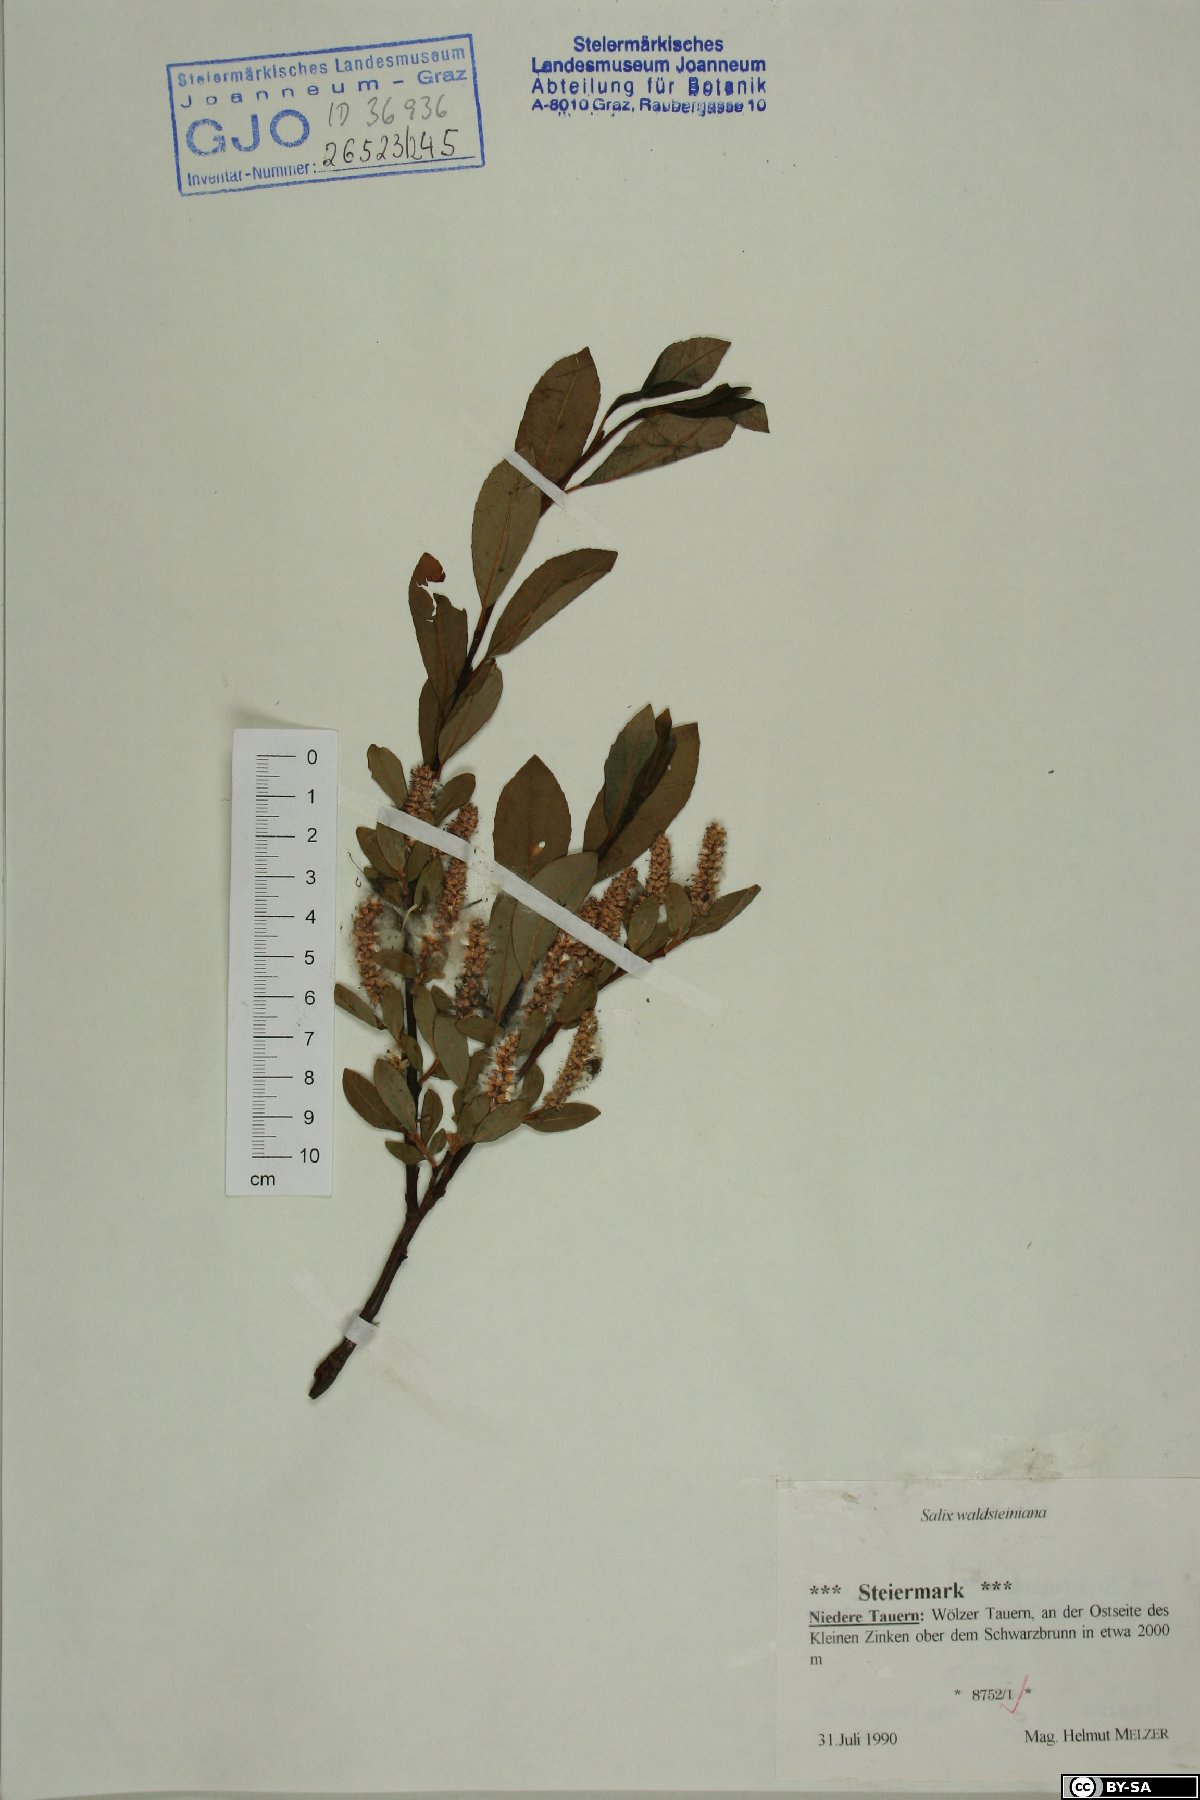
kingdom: Plantae
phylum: Tracheophyta
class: Magnoliopsida
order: Malpighiales
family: Salicaceae
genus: Salix
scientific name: Salix waldsteiniana
